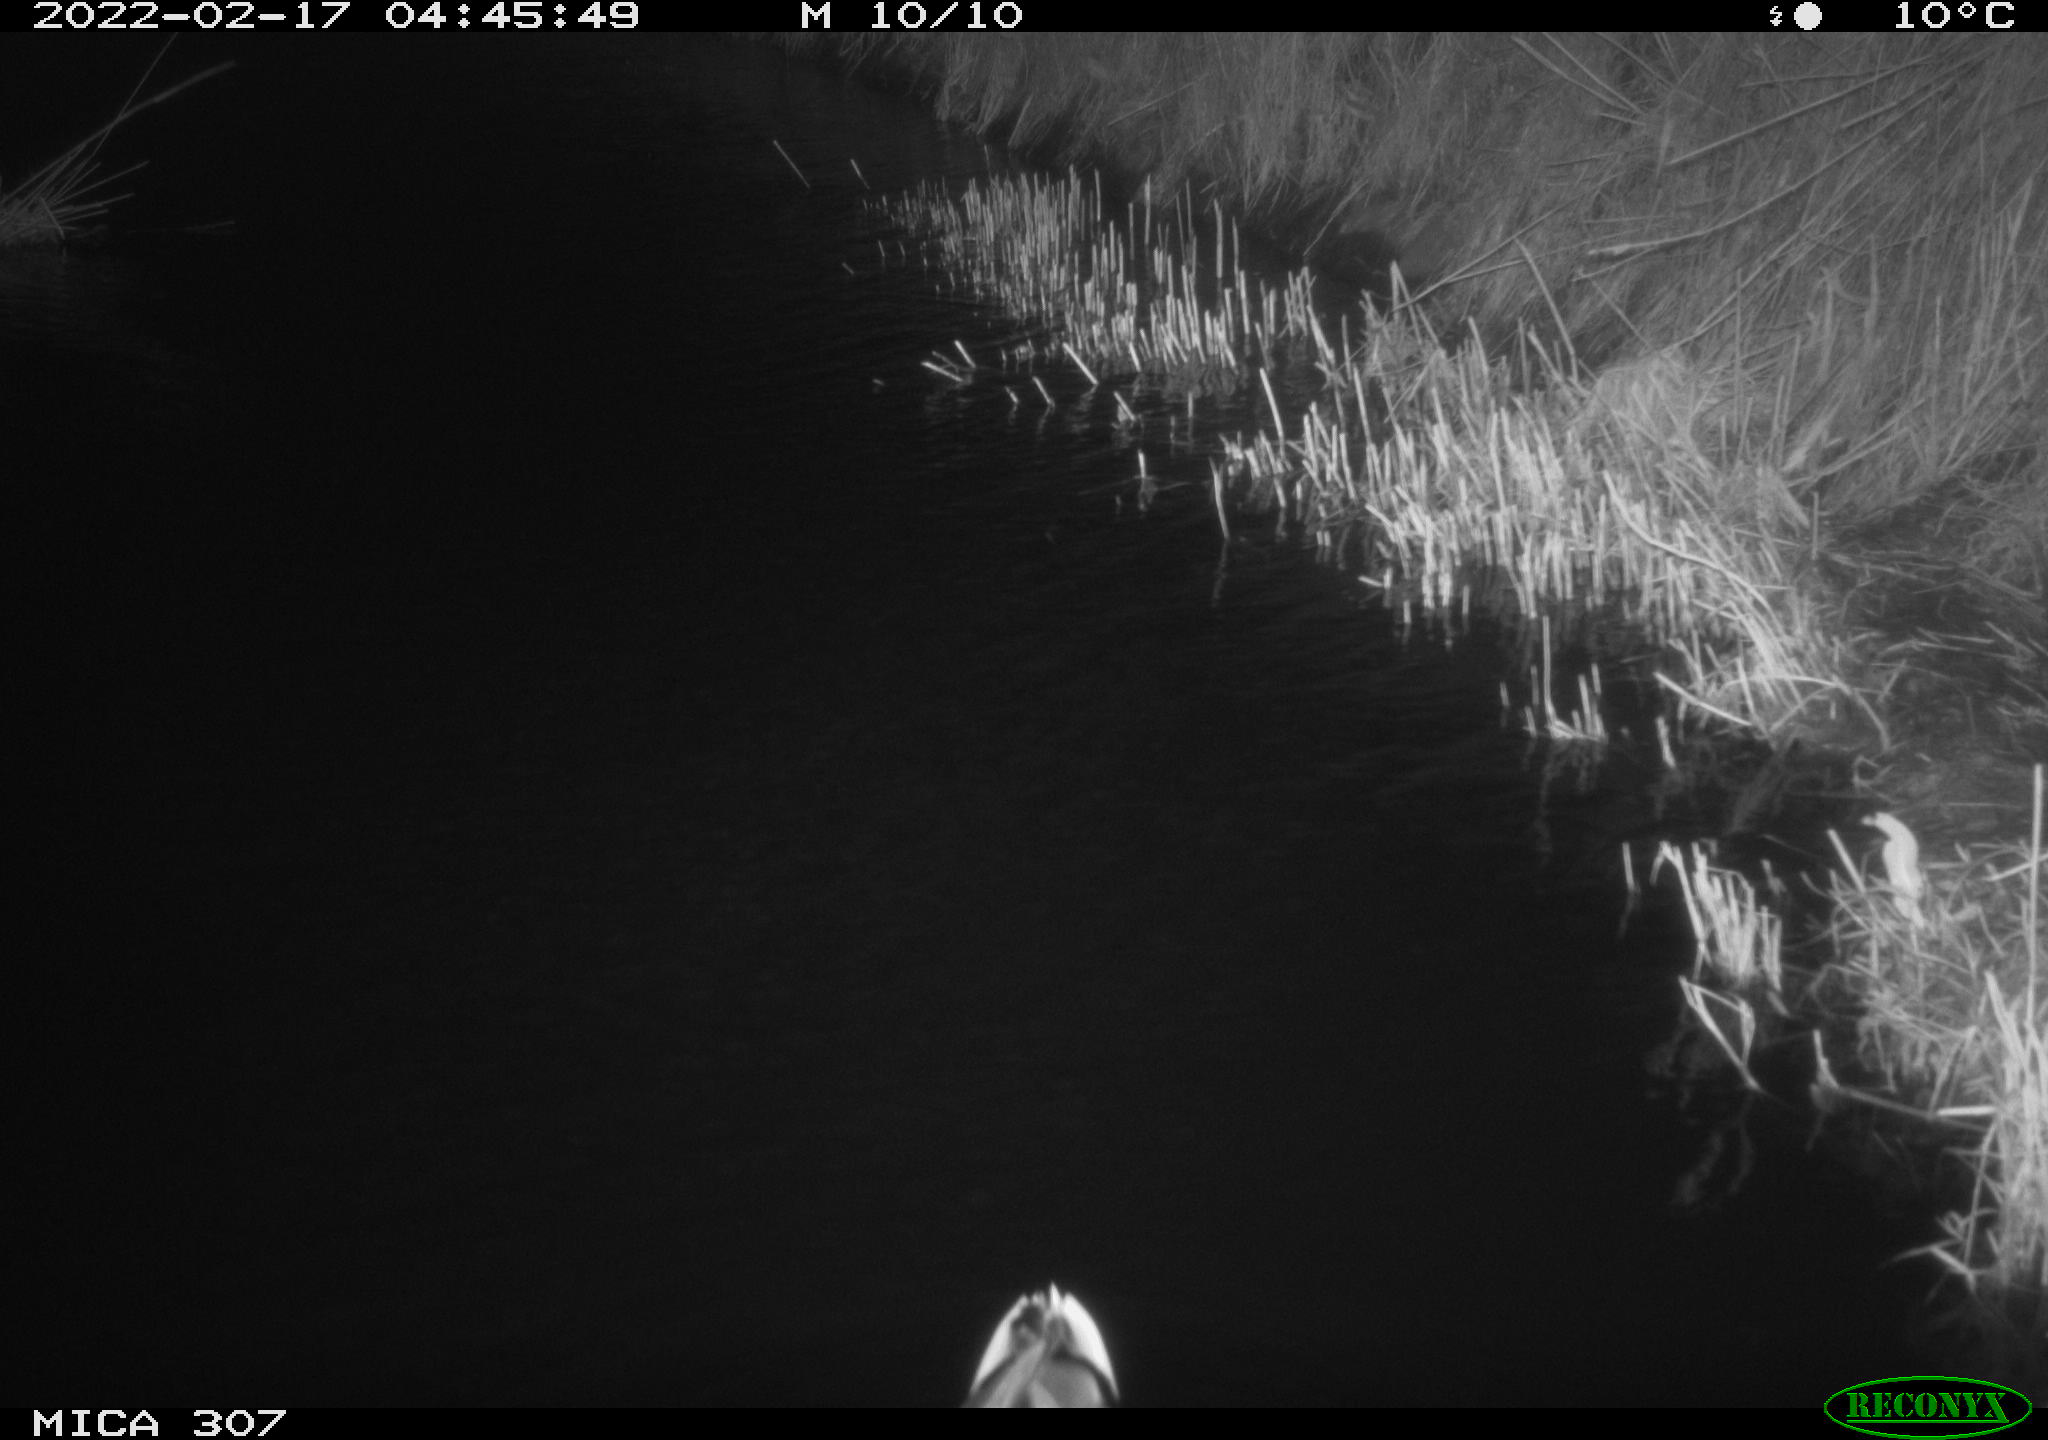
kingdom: Animalia
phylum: Chordata
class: Aves
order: Anseriformes
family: Anatidae
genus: Anas
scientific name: Anas platyrhynchos
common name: Mallard
